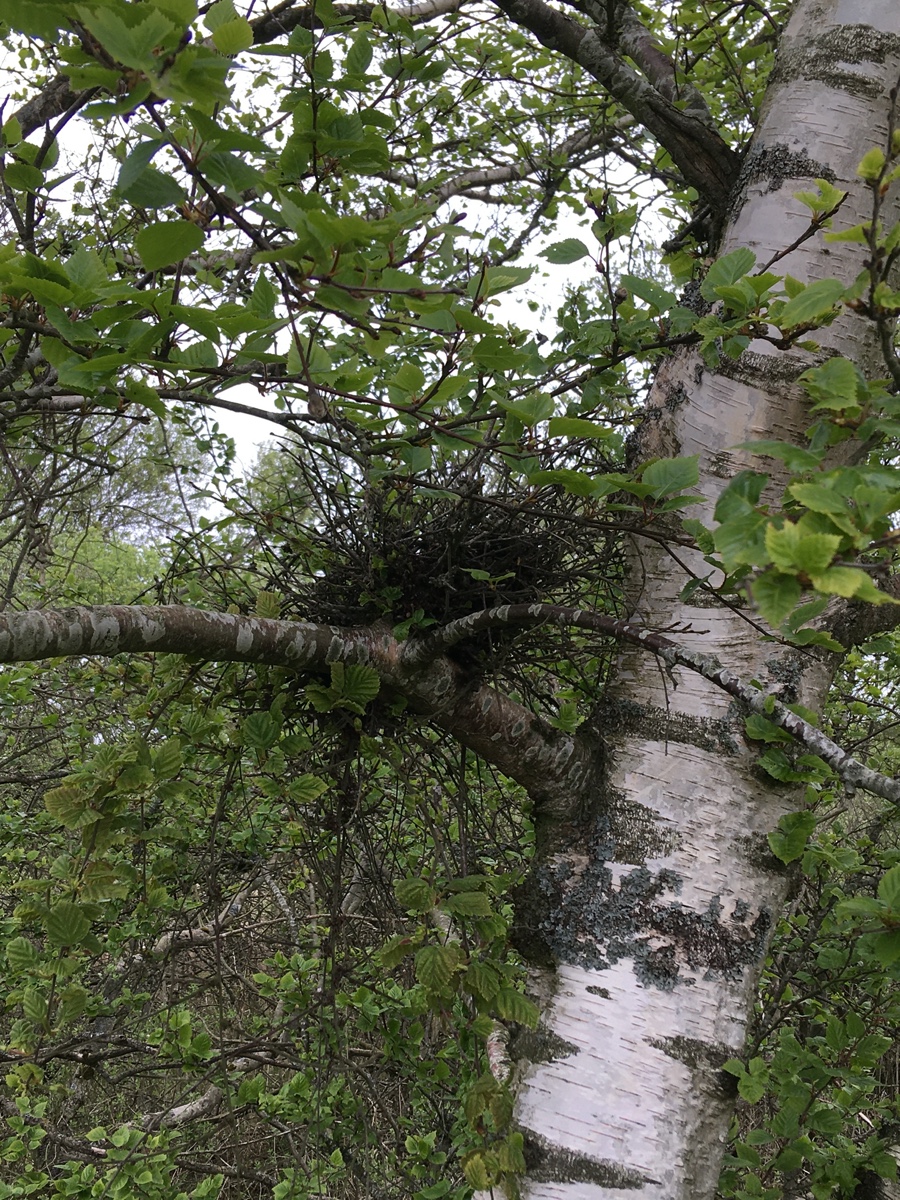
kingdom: Fungi
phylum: Ascomycota
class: Taphrinomycetes
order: Taphrinales
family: Taphrinaceae
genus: Taphrina
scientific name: Taphrina betulina
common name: hekse-sækdug
